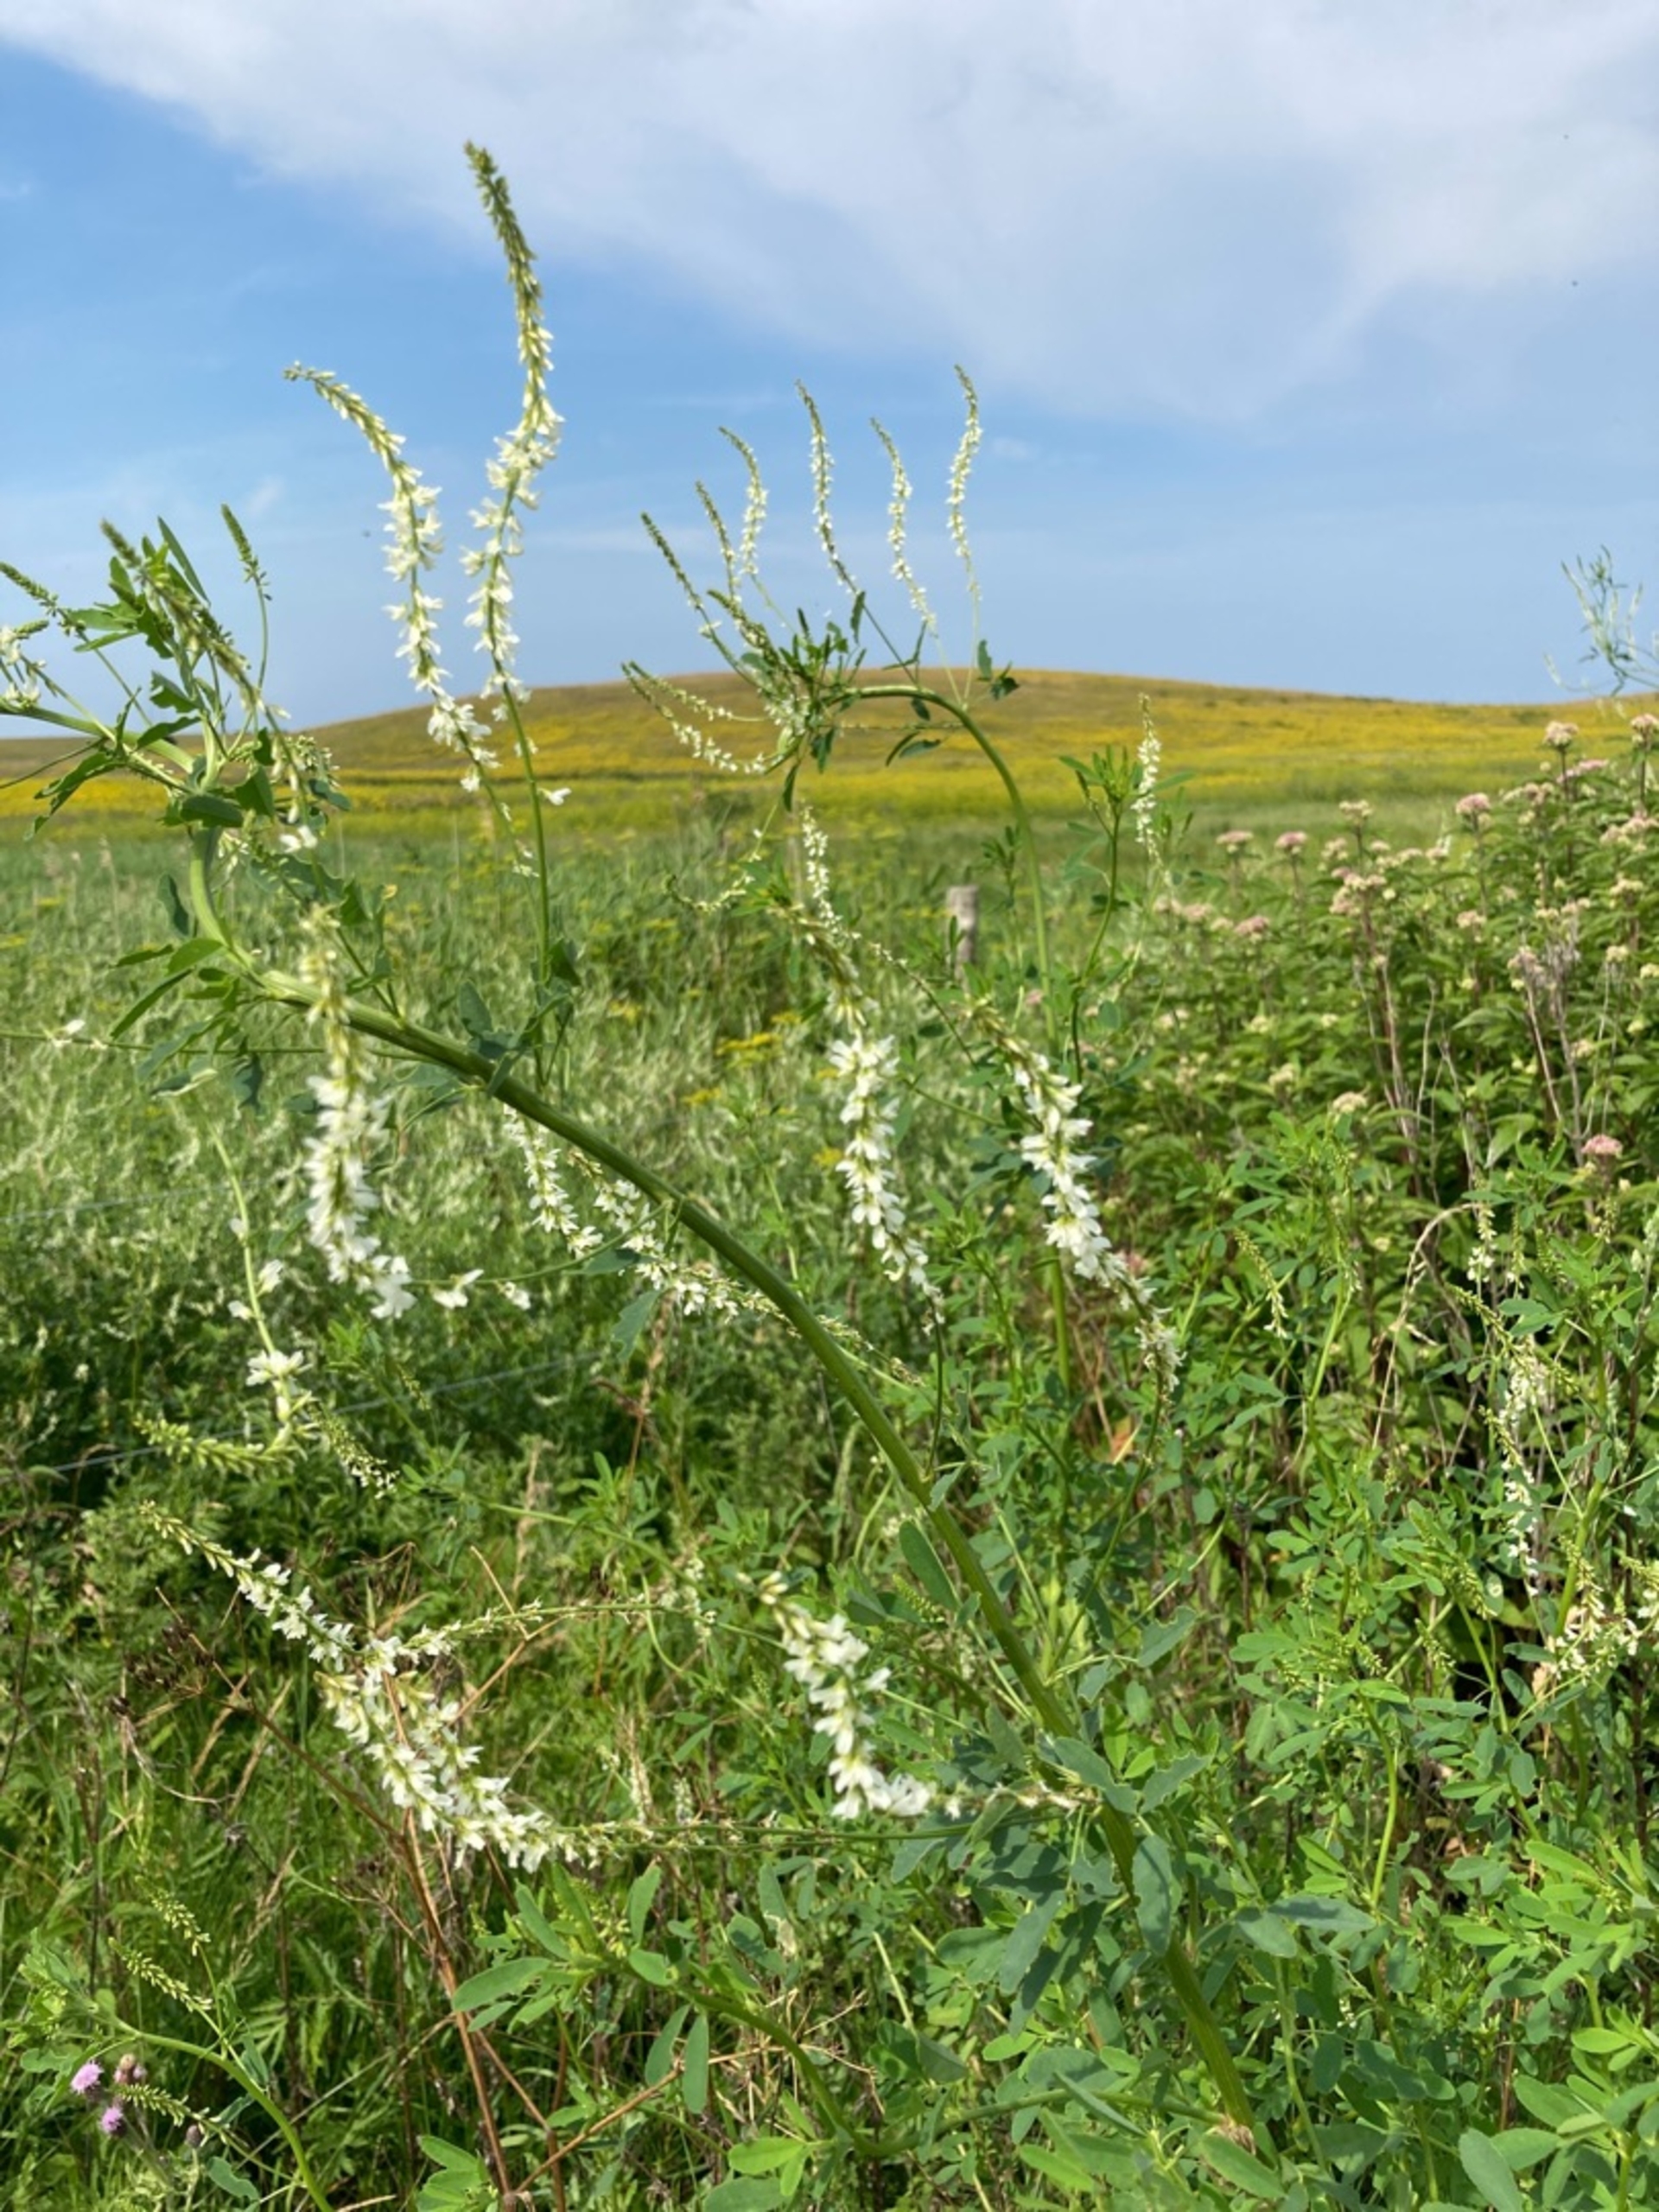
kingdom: Plantae
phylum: Tracheophyta
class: Magnoliopsida
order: Fabales
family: Fabaceae
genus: Melilotus
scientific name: Melilotus albus
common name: Hvid stenkløver
